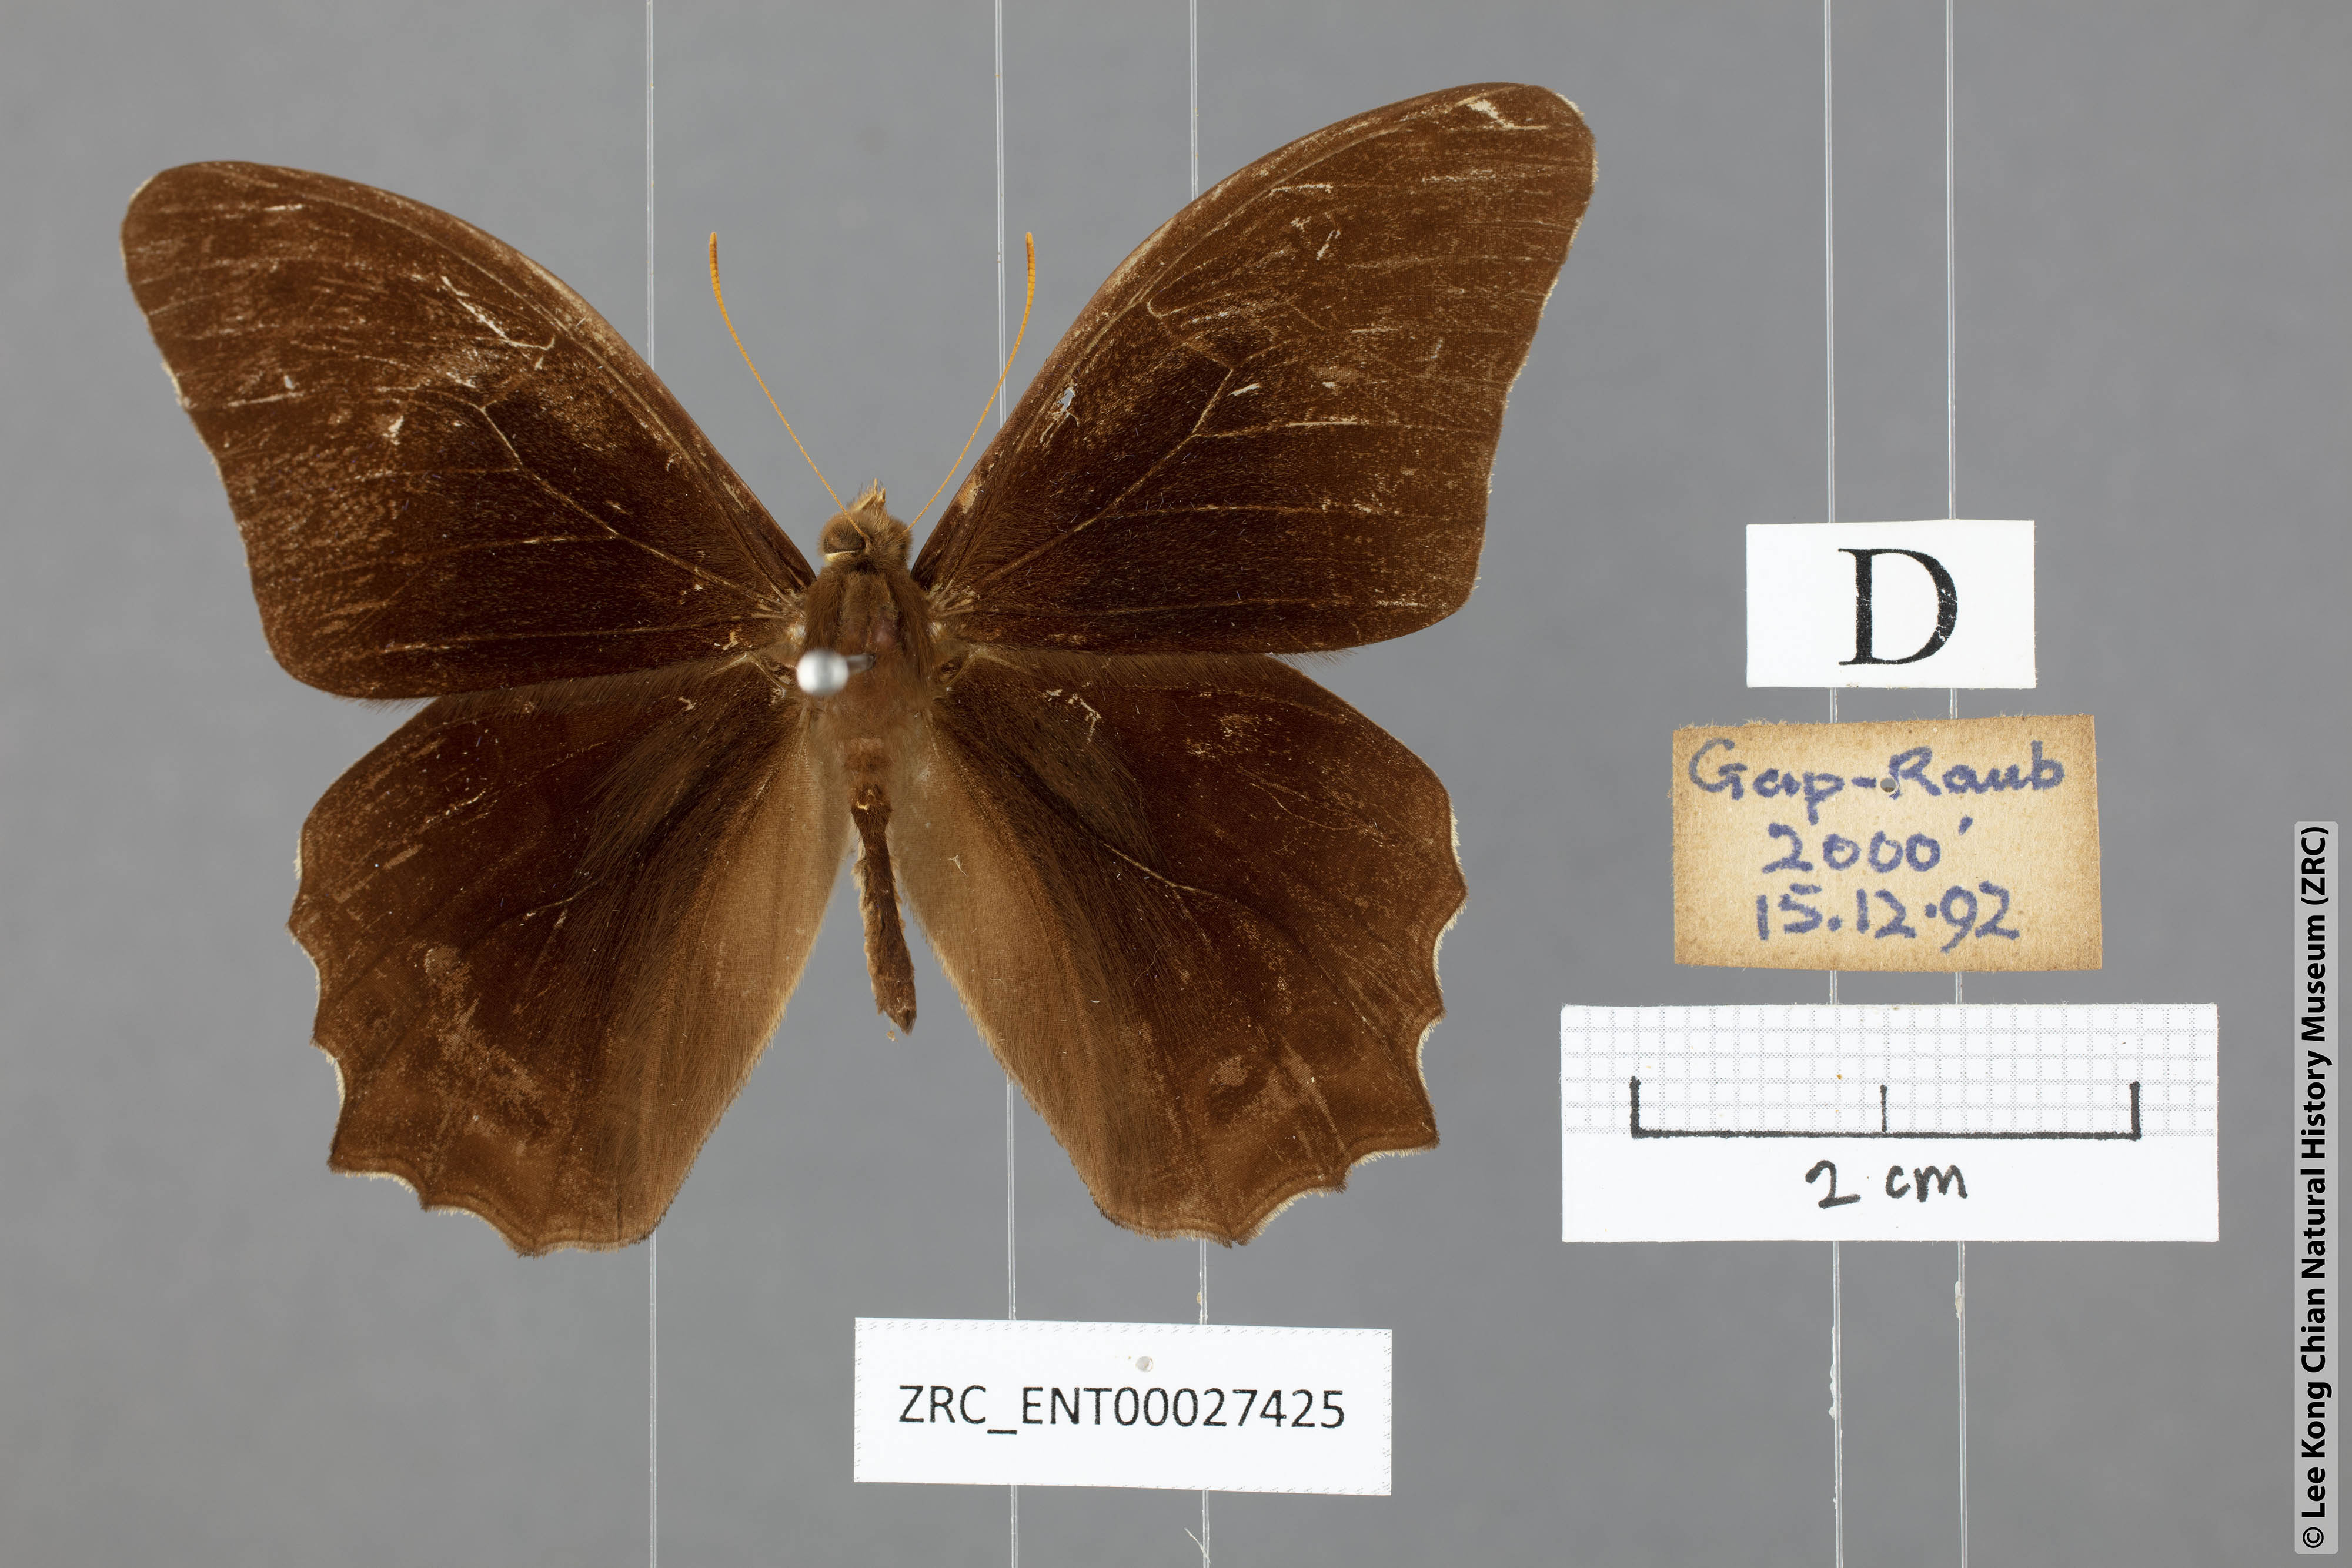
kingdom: Animalia
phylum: Arthropoda
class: Insecta
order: Lepidoptera
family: Nymphalidae
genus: Lethe
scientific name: Lethe chandica
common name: Angled red forester
